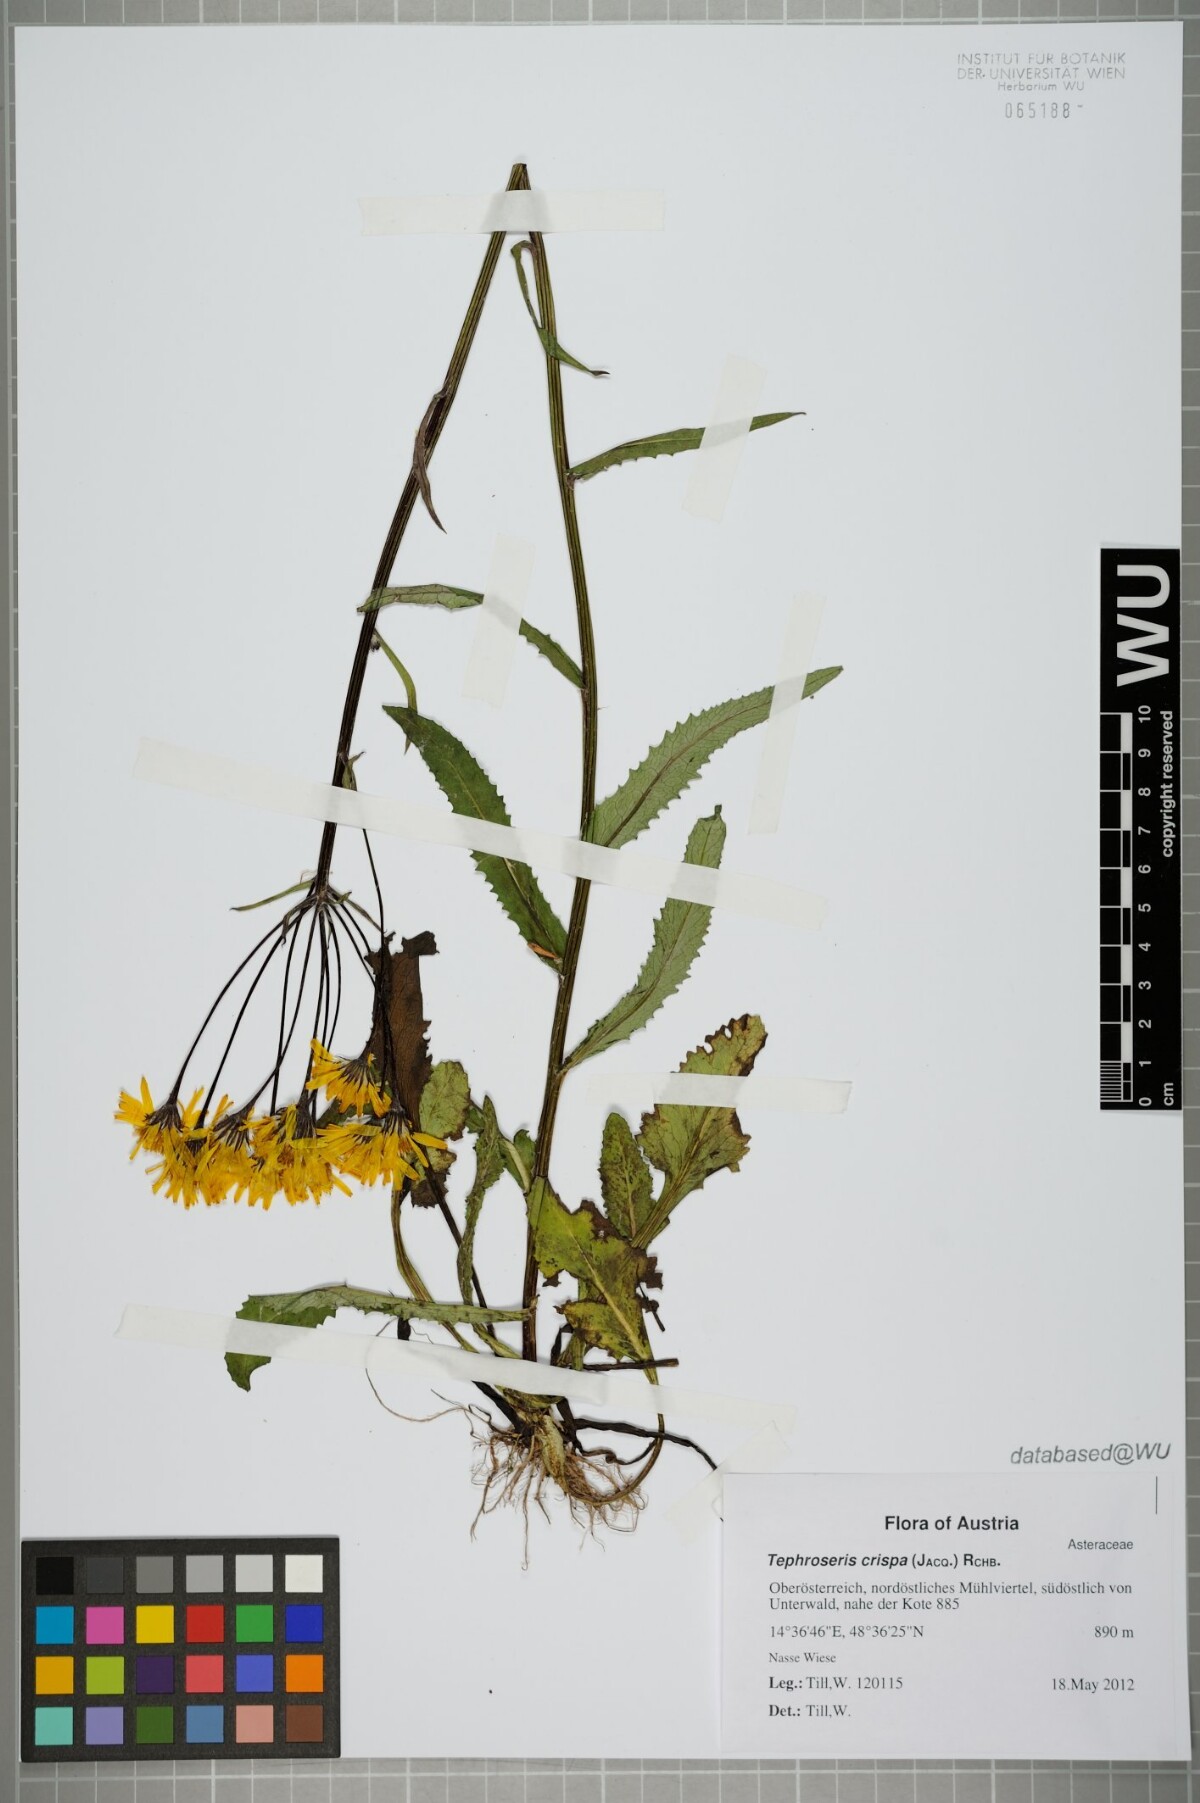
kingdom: Plantae
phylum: Tracheophyta
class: Magnoliopsida
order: Asterales
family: Asteraceae
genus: Tephroseris
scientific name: Tephroseris crispa
